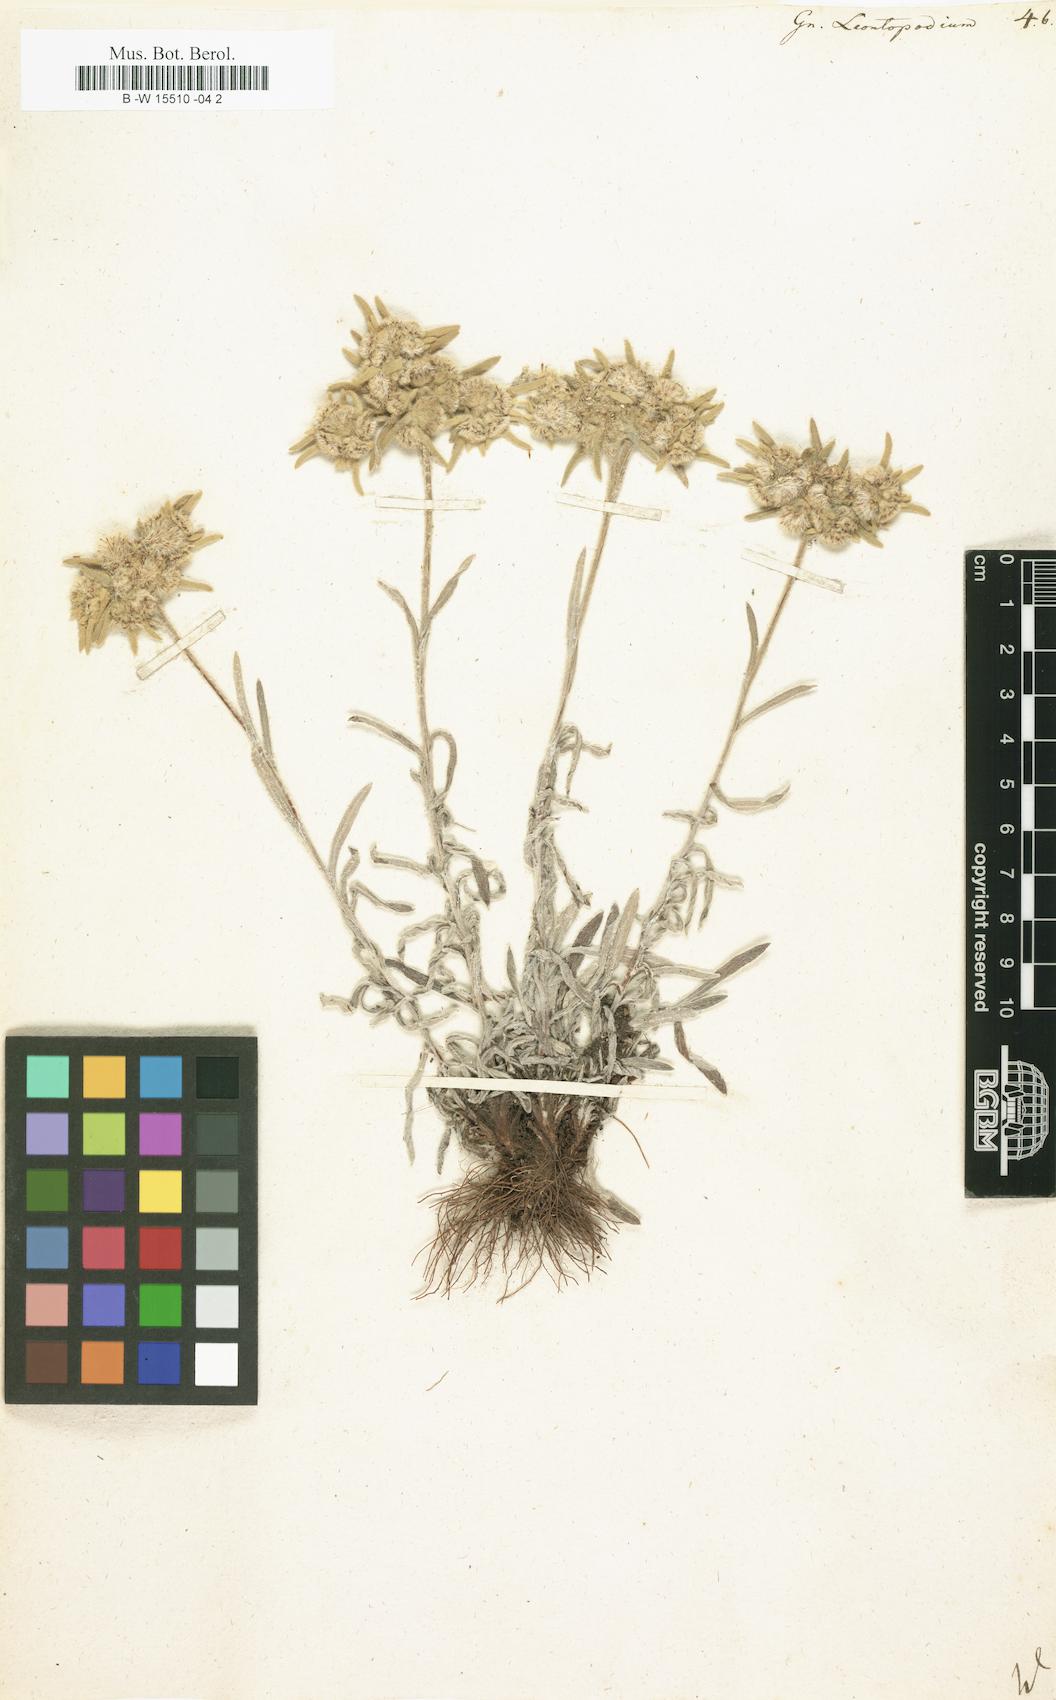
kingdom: Plantae
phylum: Tracheophyta
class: Magnoliopsida
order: Asterales
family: Asteraceae
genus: Gnaphalium
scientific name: Gnaphalium leontopodium
